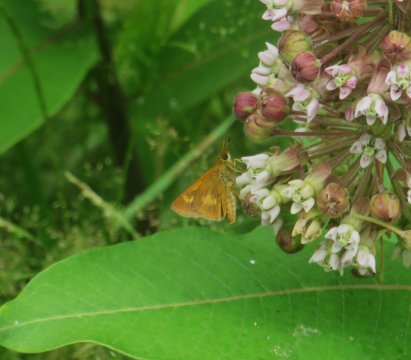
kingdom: Animalia
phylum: Arthropoda
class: Insecta
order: Lepidoptera
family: Hesperiidae
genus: Euphyes
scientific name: Euphyes conspicua
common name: Black Dash
